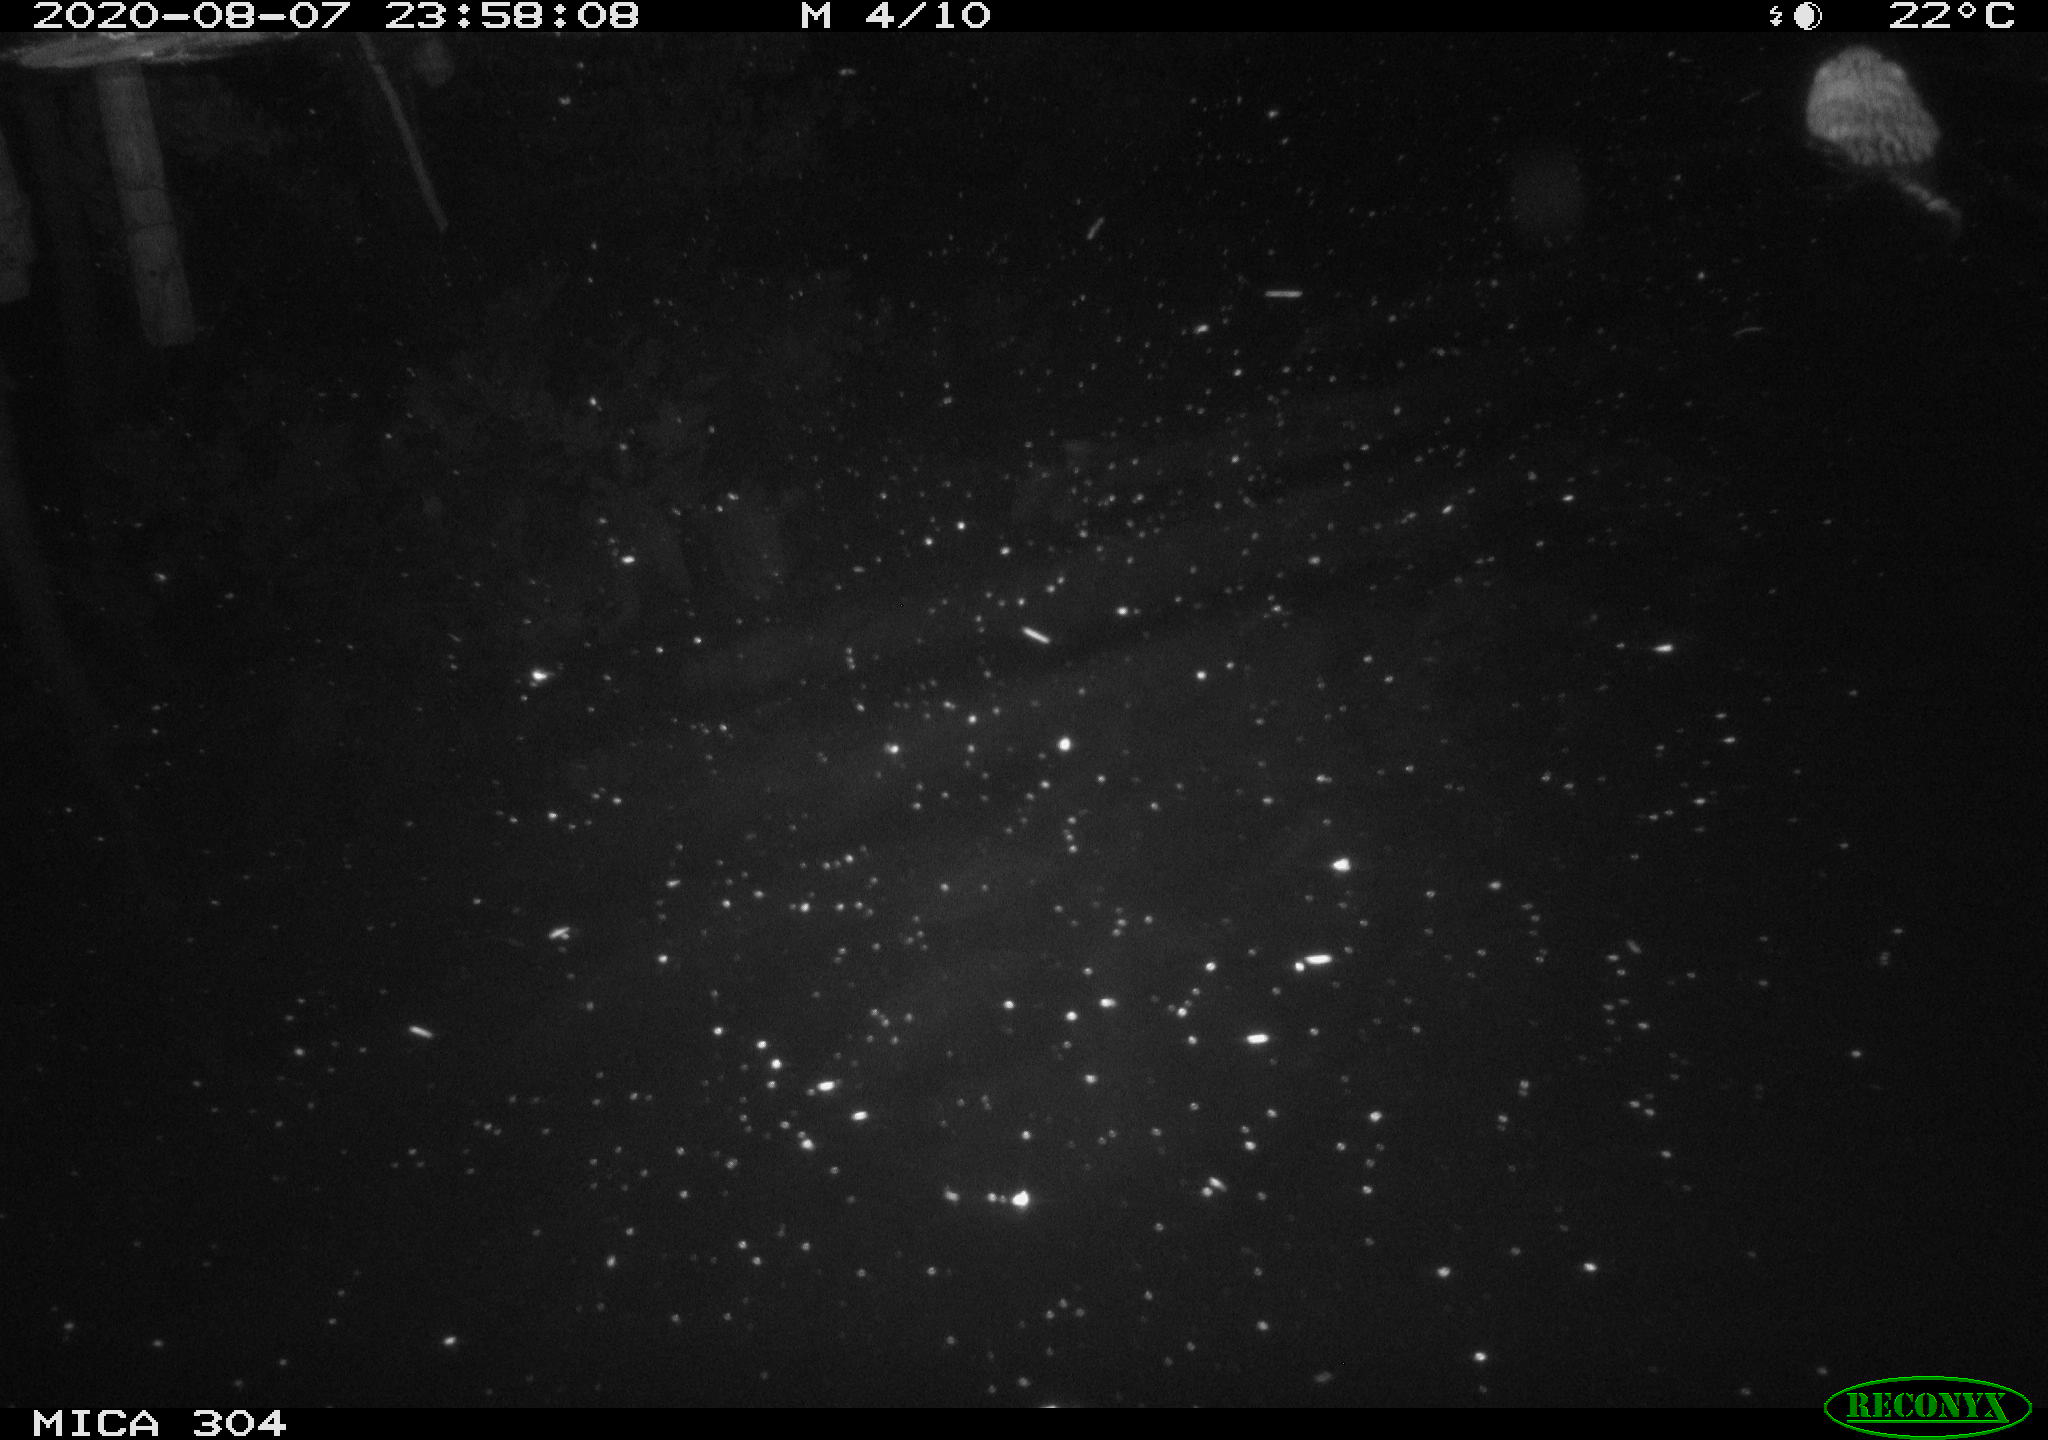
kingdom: Animalia
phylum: Chordata
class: Mammalia
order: Rodentia
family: Cricetidae
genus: Ondatra
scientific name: Ondatra zibethicus
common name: Muskrat
